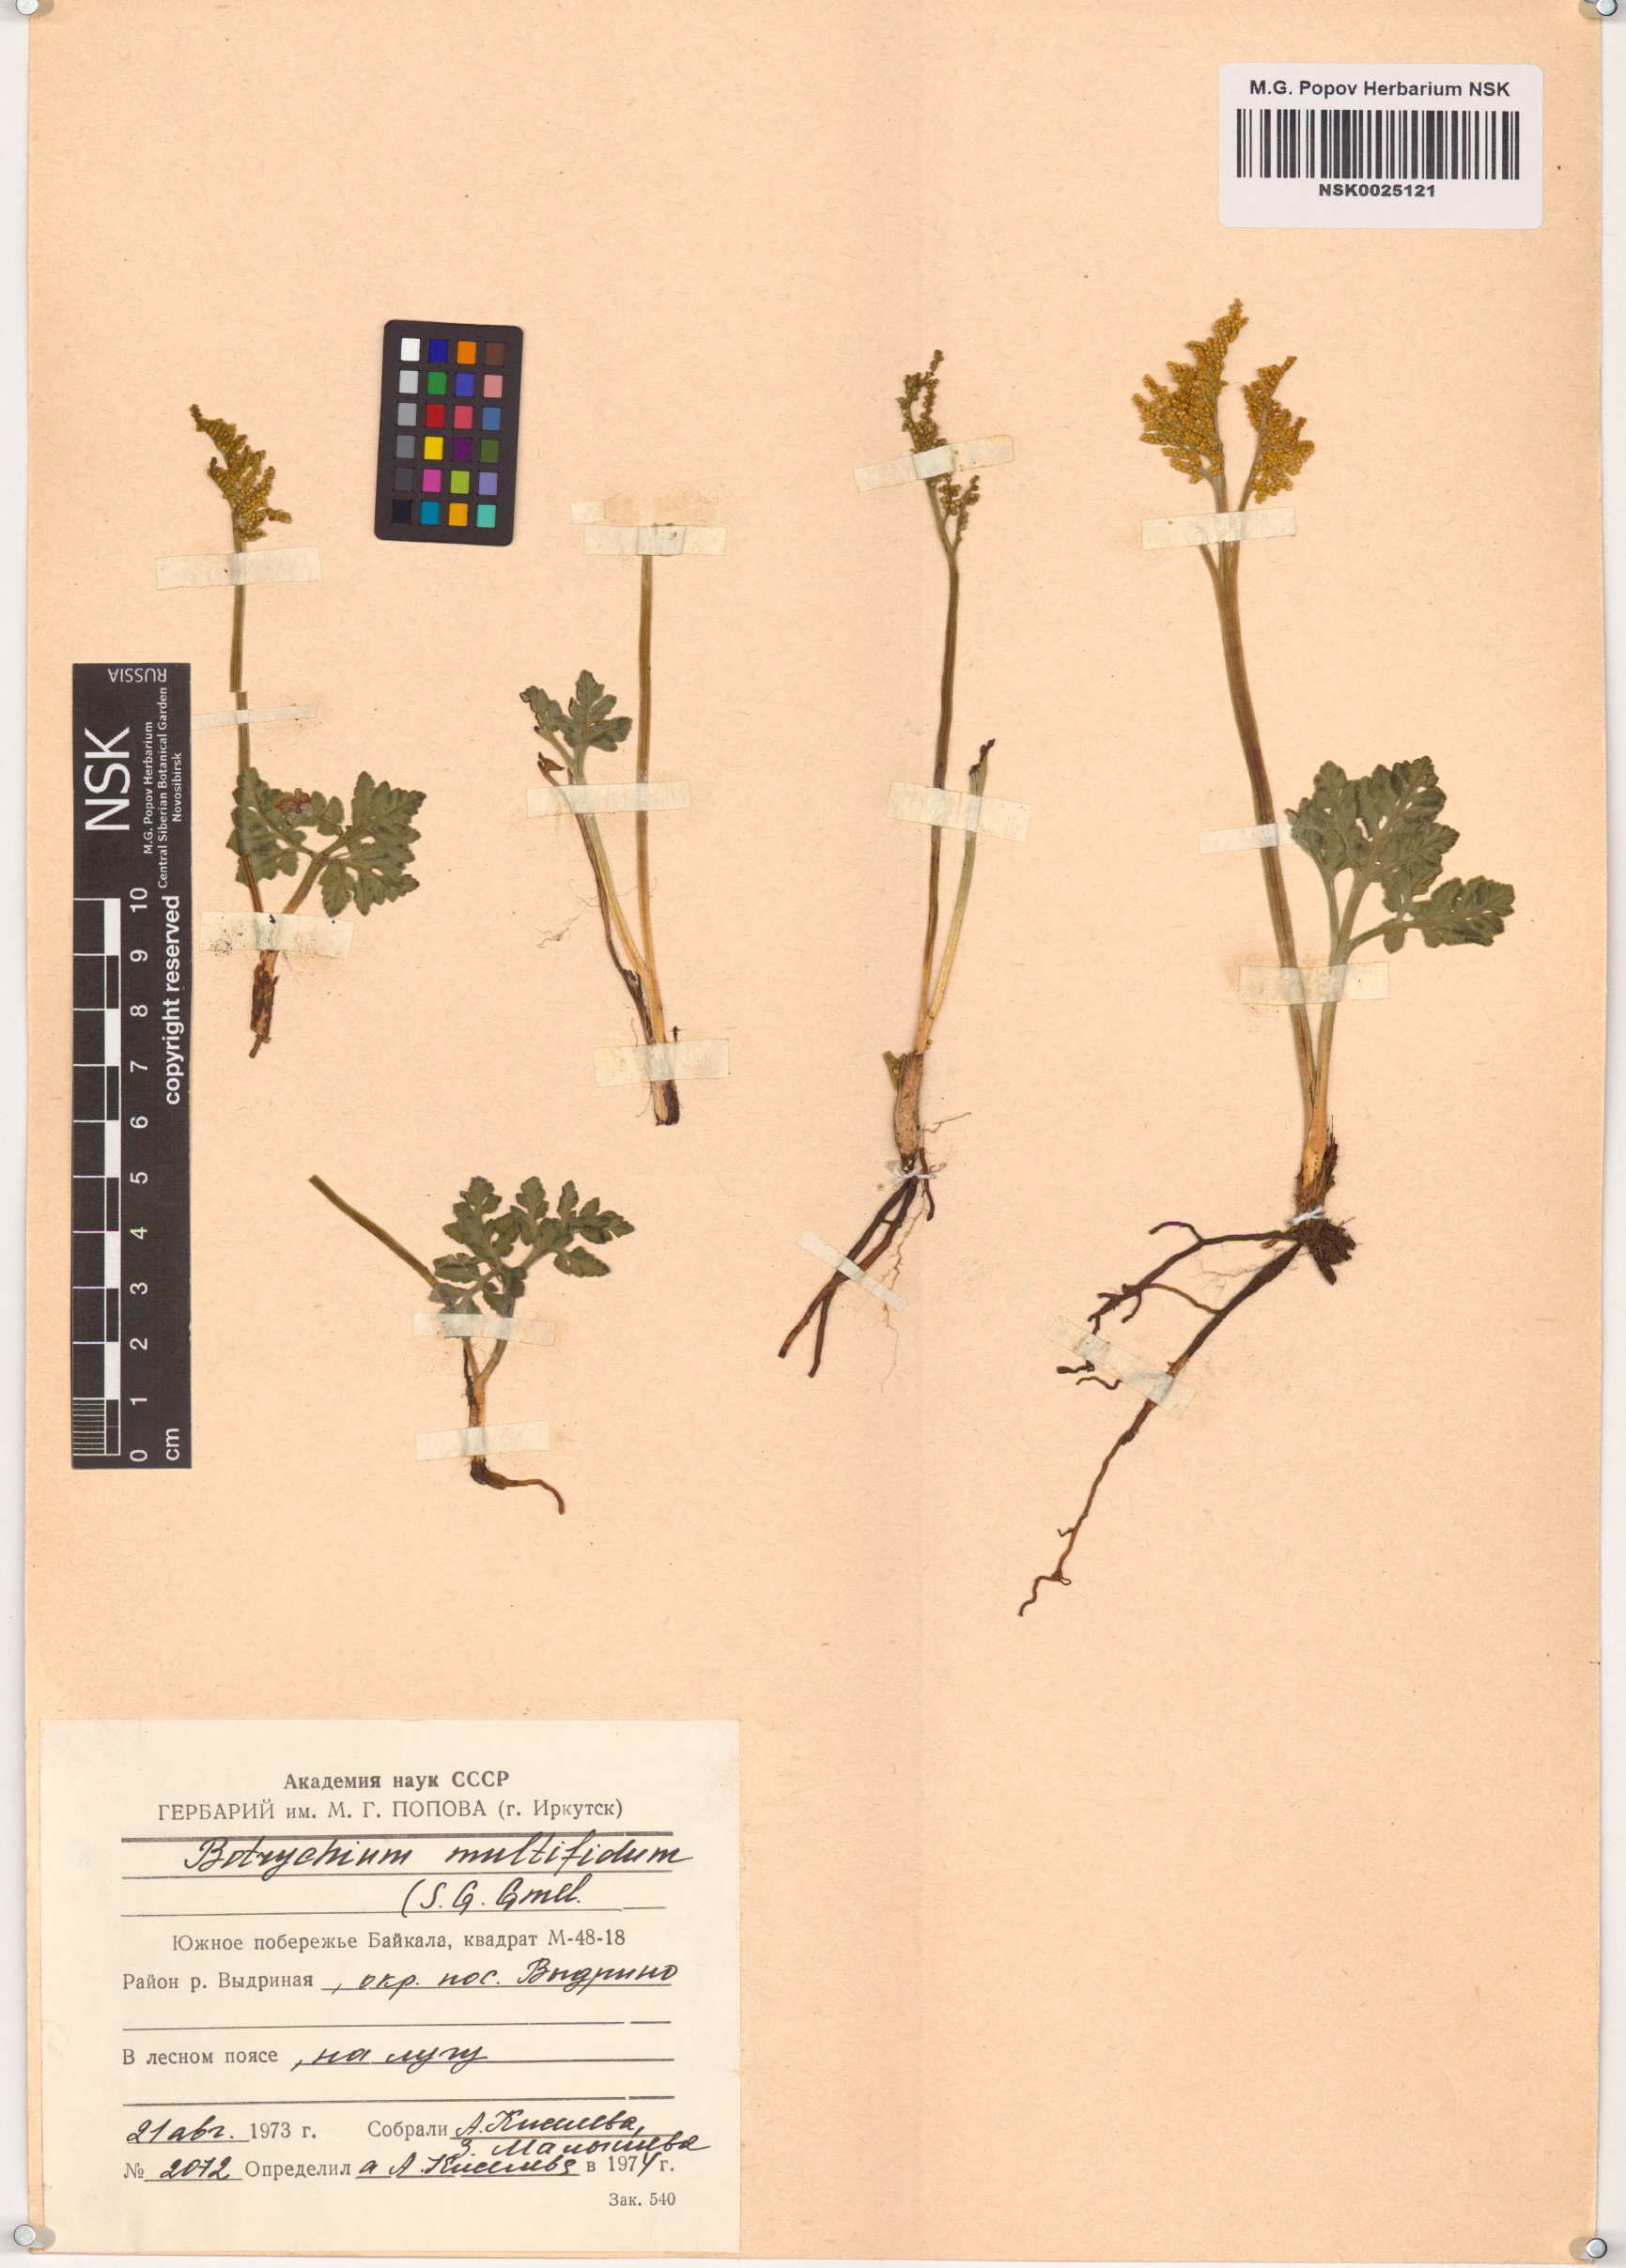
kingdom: Plantae
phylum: Tracheophyta
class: Polypodiopsida
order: Ophioglossales
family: Ophioglossaceae
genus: Sceptridium
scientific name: Sceptridium multifidum
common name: Leathery grape fern
